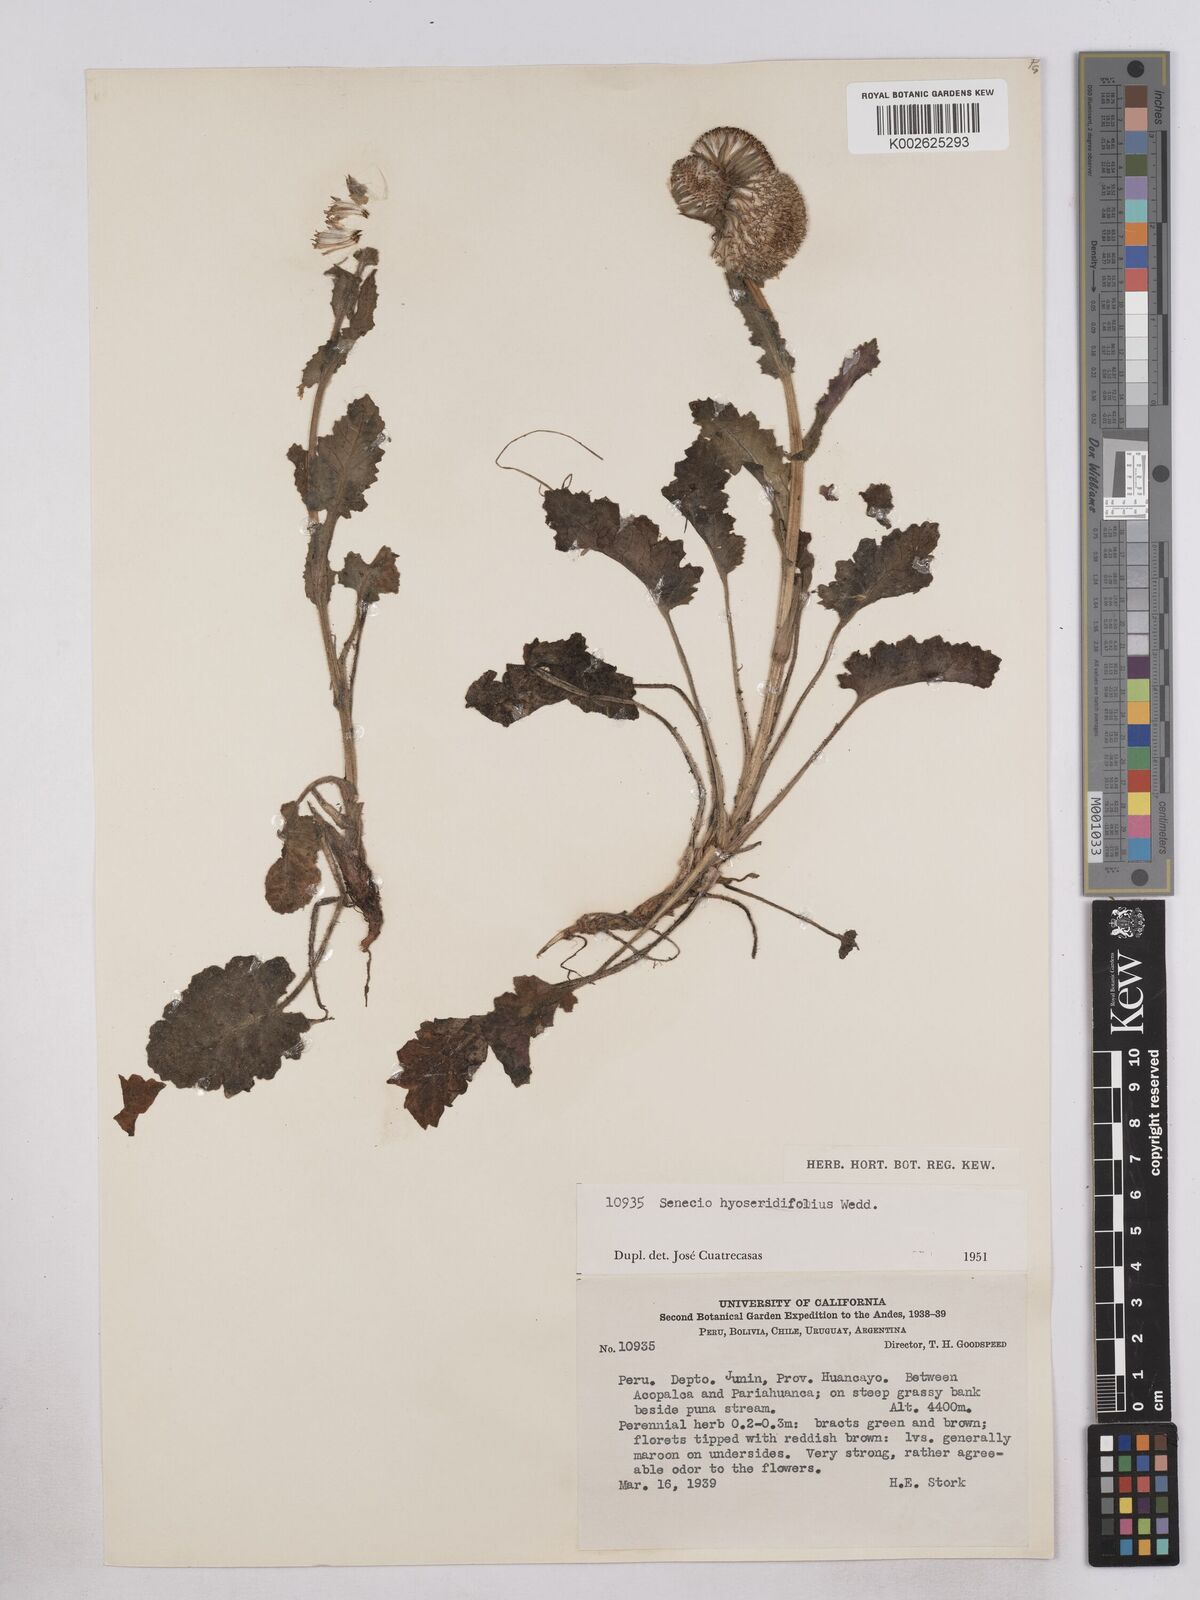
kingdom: Plantae
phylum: Tracheophyta
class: Magnoliopsida
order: Asterales
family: Asteraceae
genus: Senecio
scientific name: Senecio hyoseridifolius
